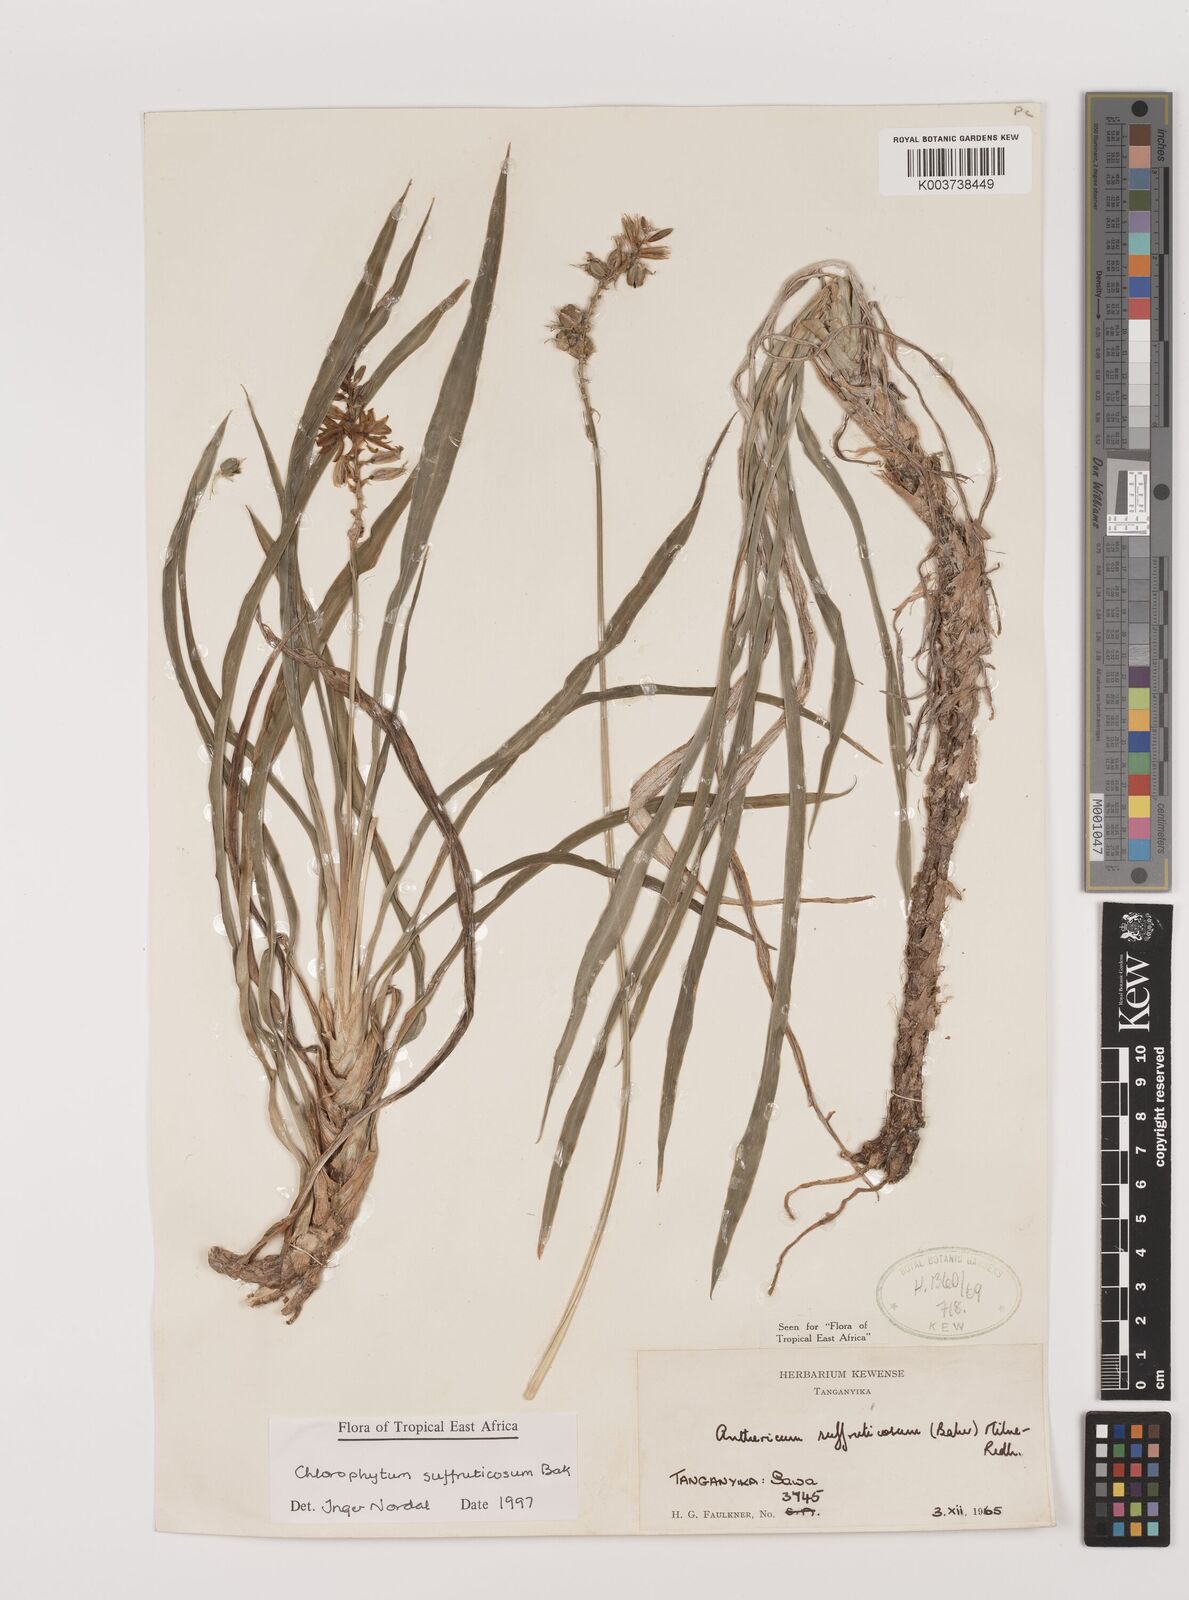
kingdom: Plantae
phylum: Tracheophyta
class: Liliopsida
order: Asparagales
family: Asparagaceae
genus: Chlorophytum
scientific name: Chlorophytum suffruticosum
